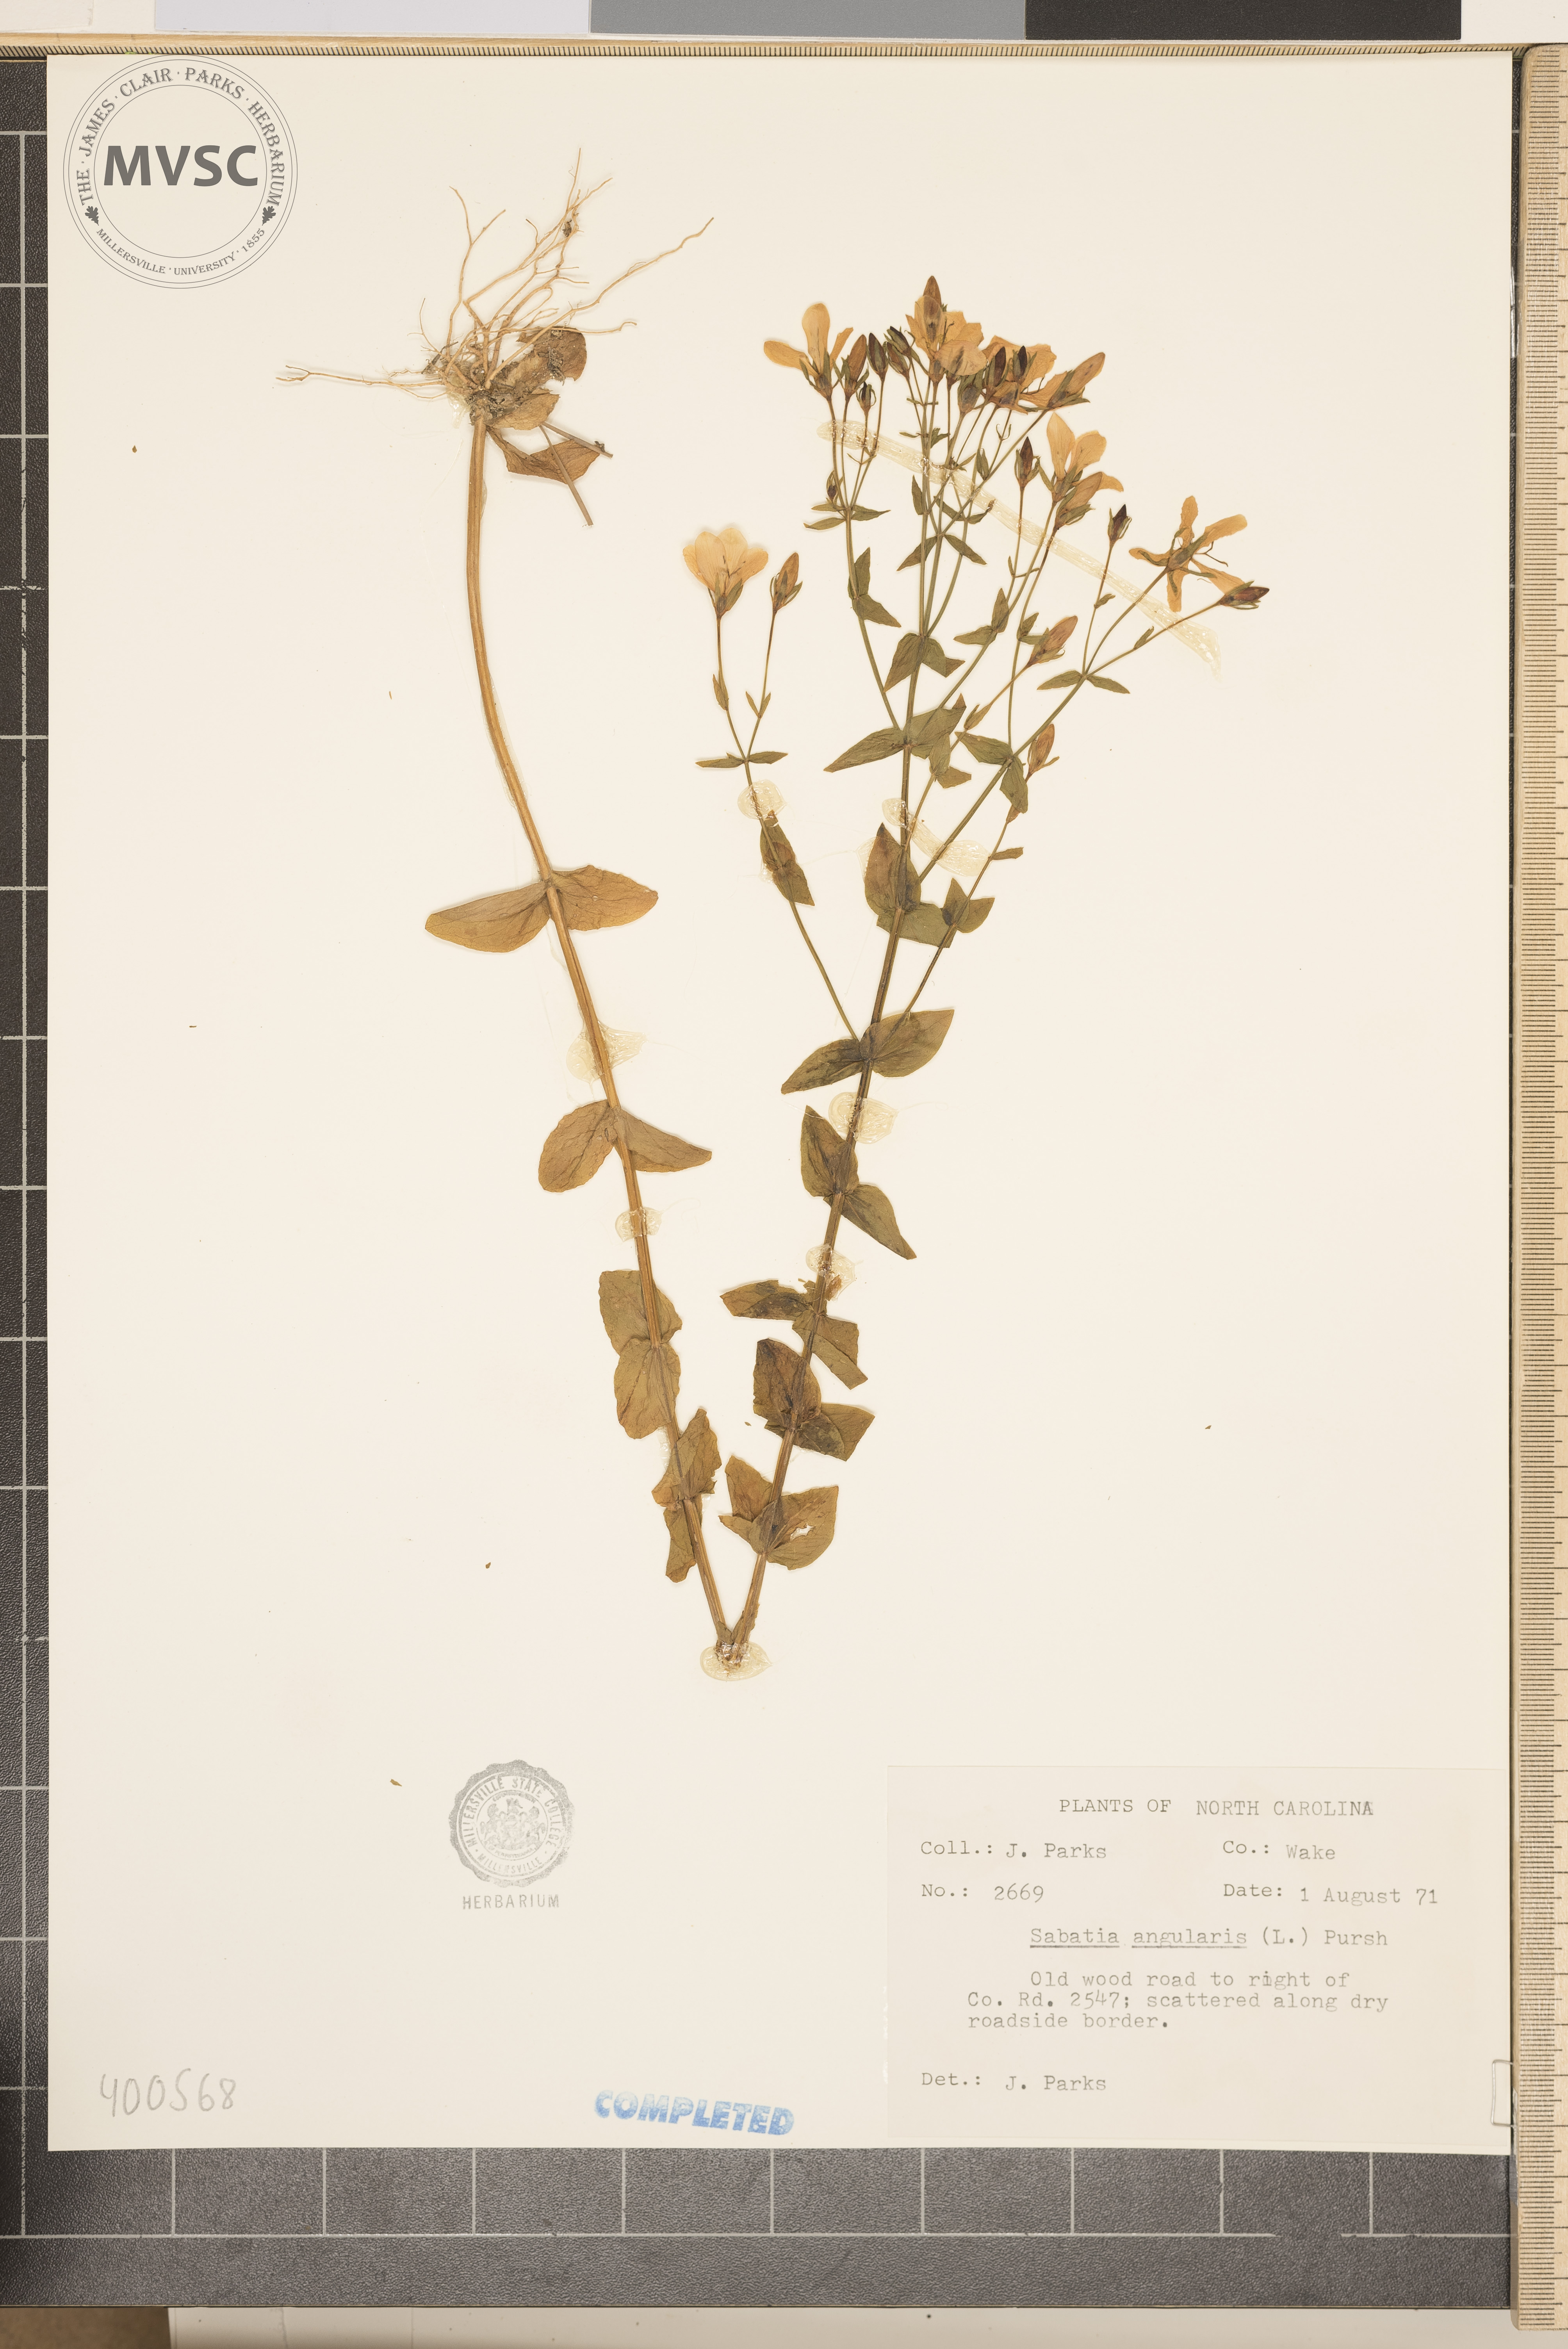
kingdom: Plantae
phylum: Tracheophyta
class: Magnoliopsida
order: Gentianales
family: Gentianaceae
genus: Sabatia
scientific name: Sabatia angularis
